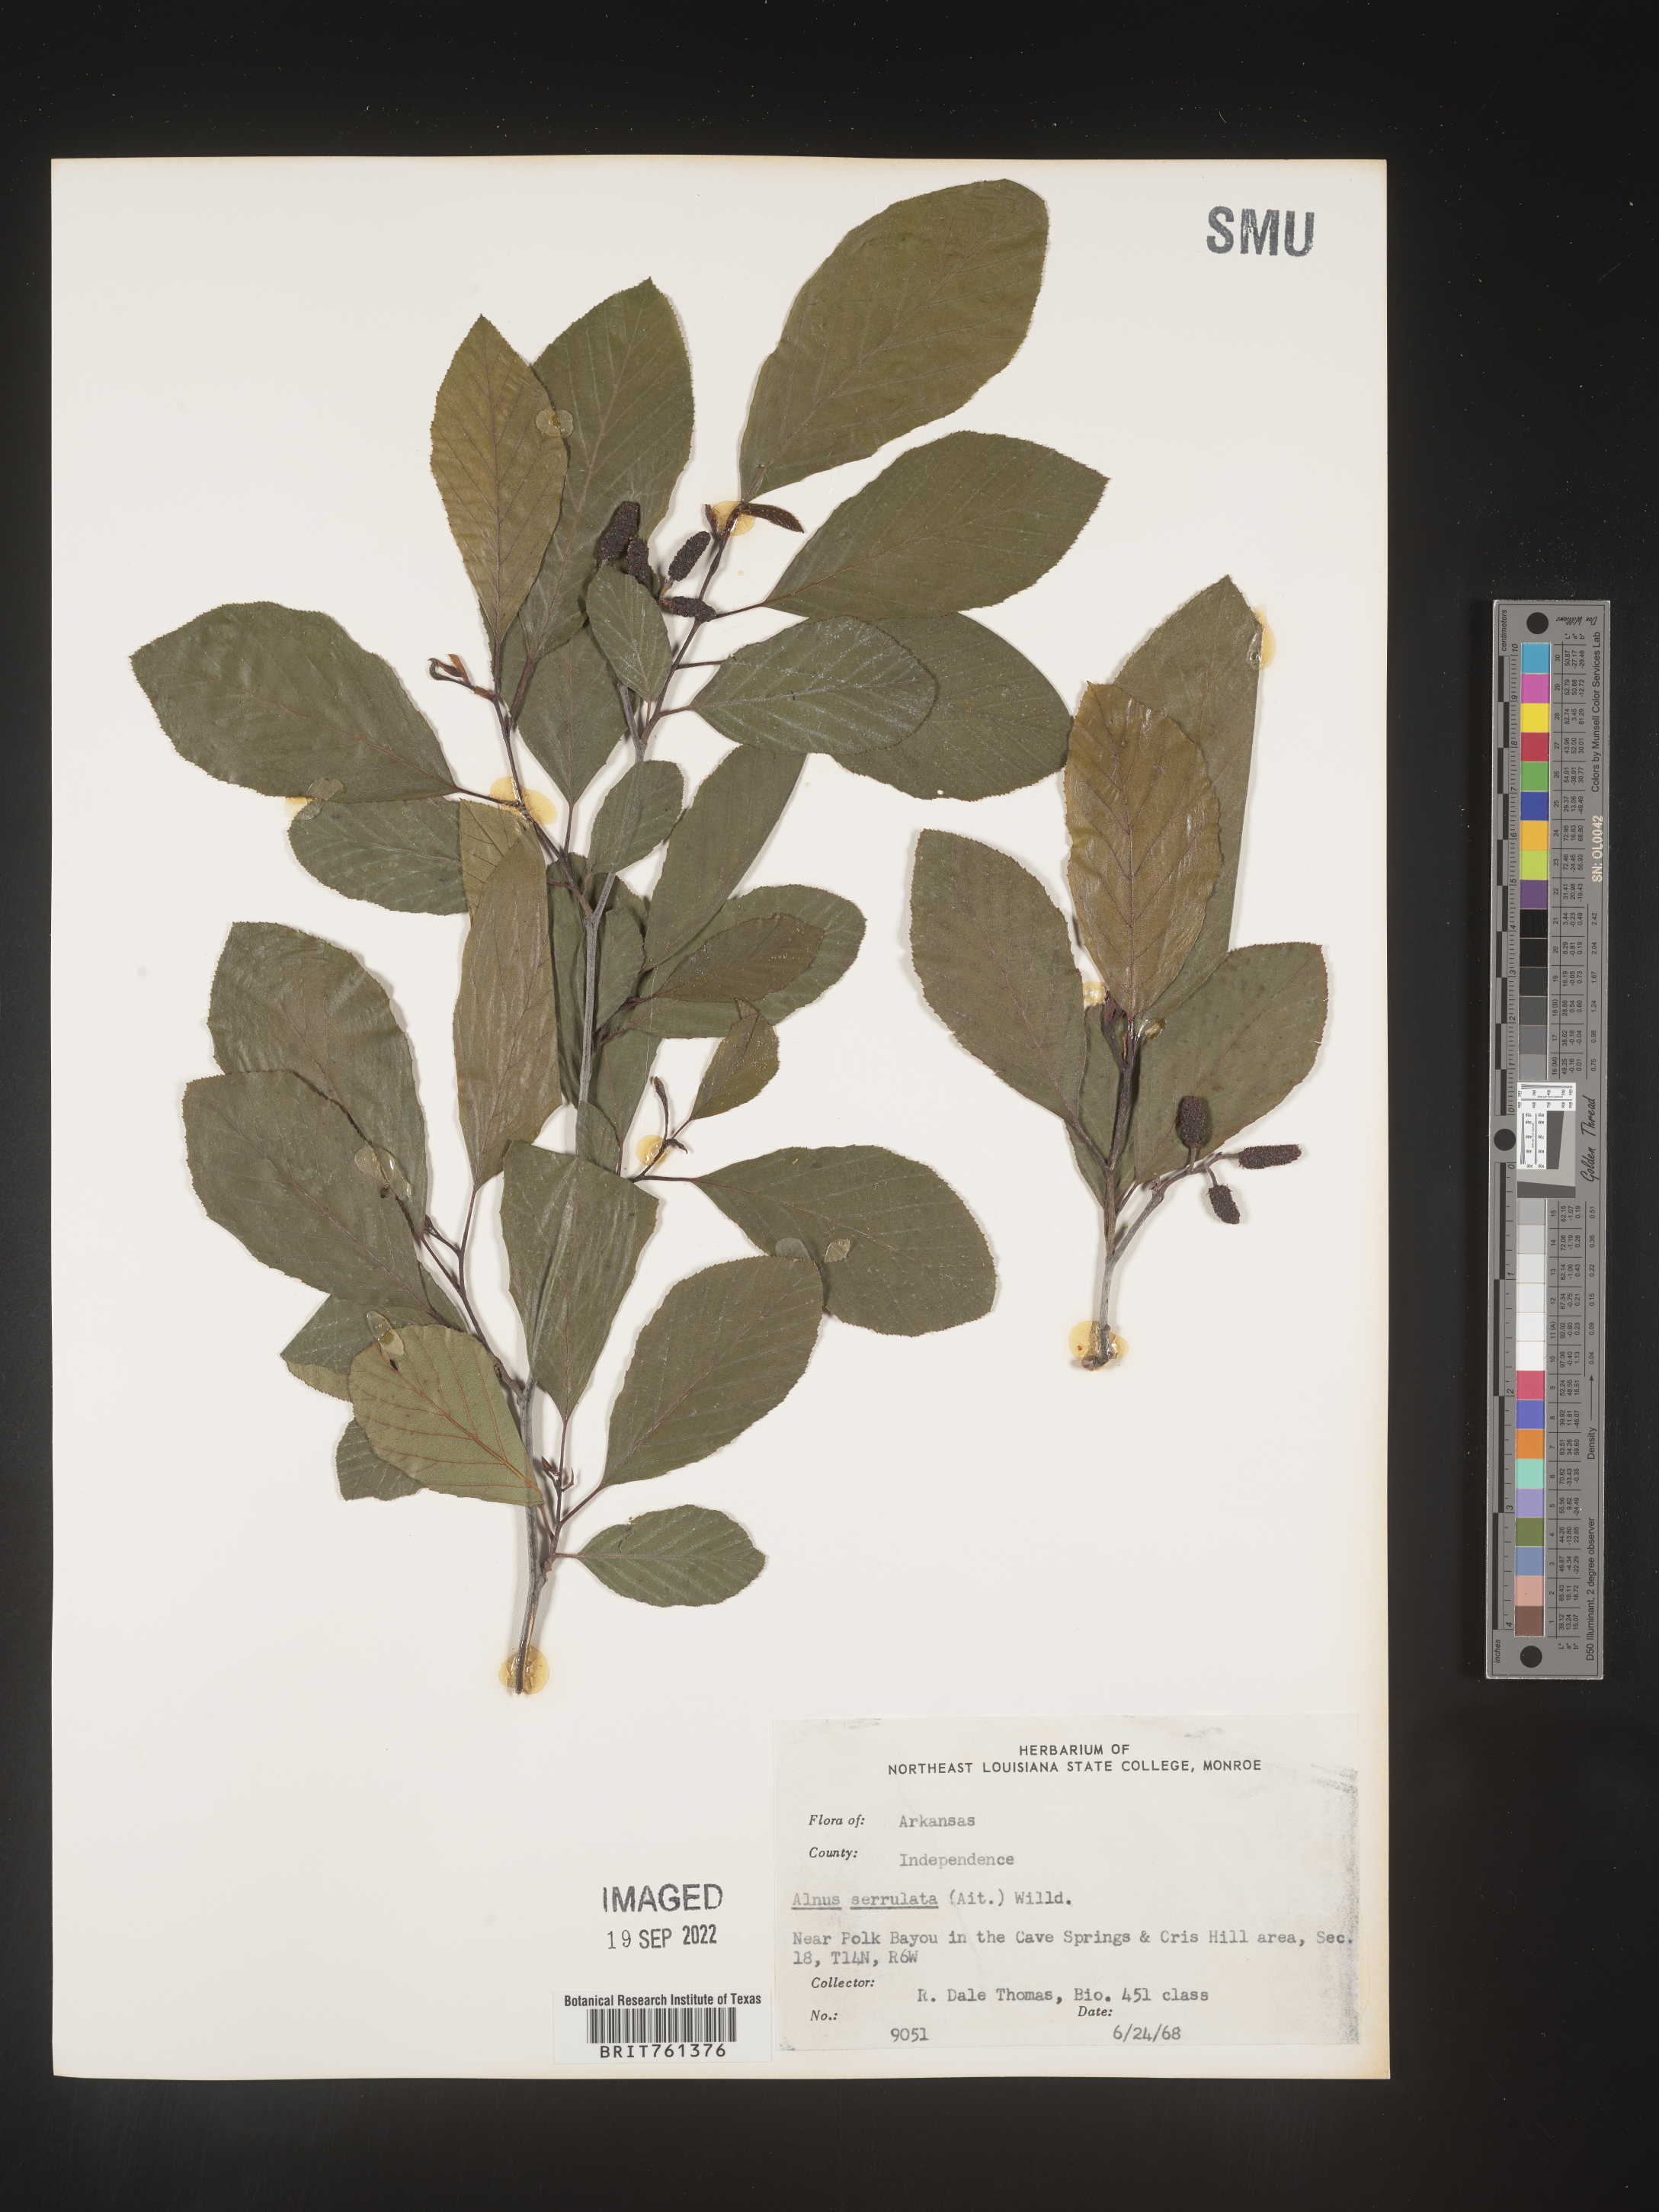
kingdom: Plantae
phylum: Tracheophyta
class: Magnoliopsida
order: Fagales
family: Betulaceae
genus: Alnus
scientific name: Alnus serrulata
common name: Hazel alder
